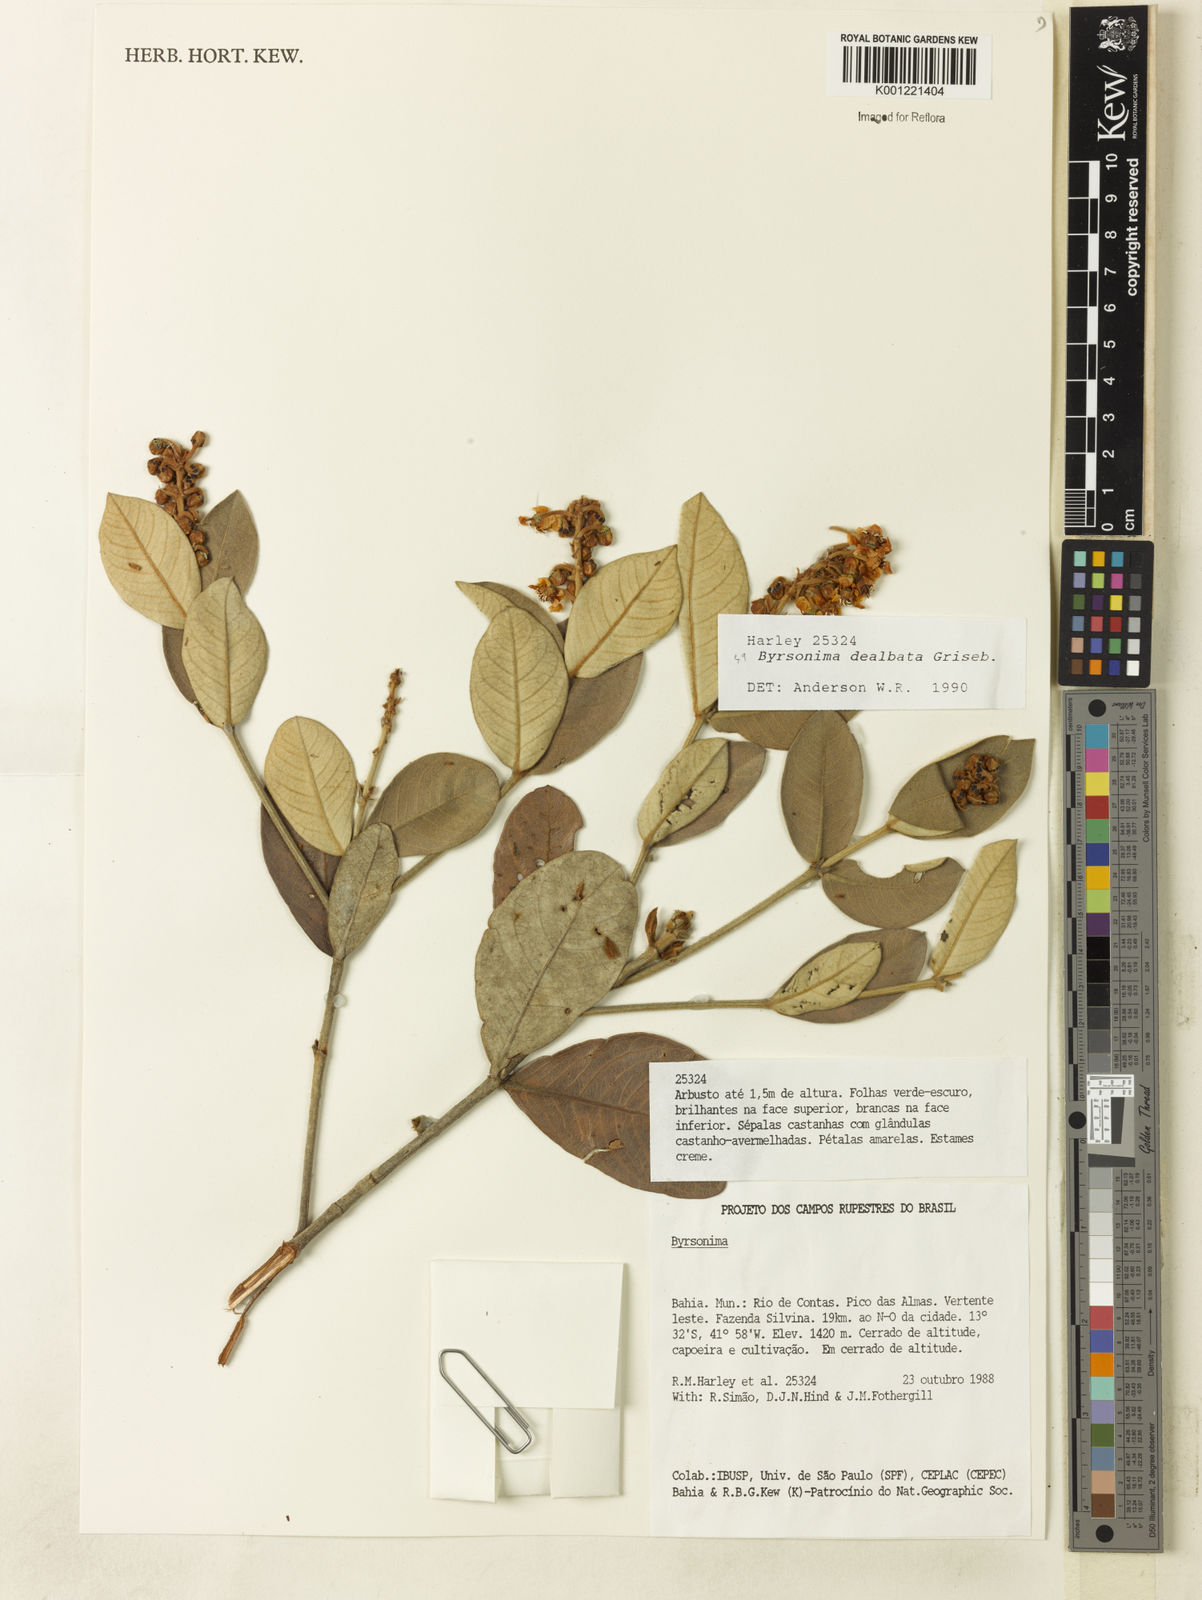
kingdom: Plantae
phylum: Tracheophyta
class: Magnoliopsida
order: Malpighiales
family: Malpighiaceae
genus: Byrsonima
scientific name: Byrsonima dealbata
